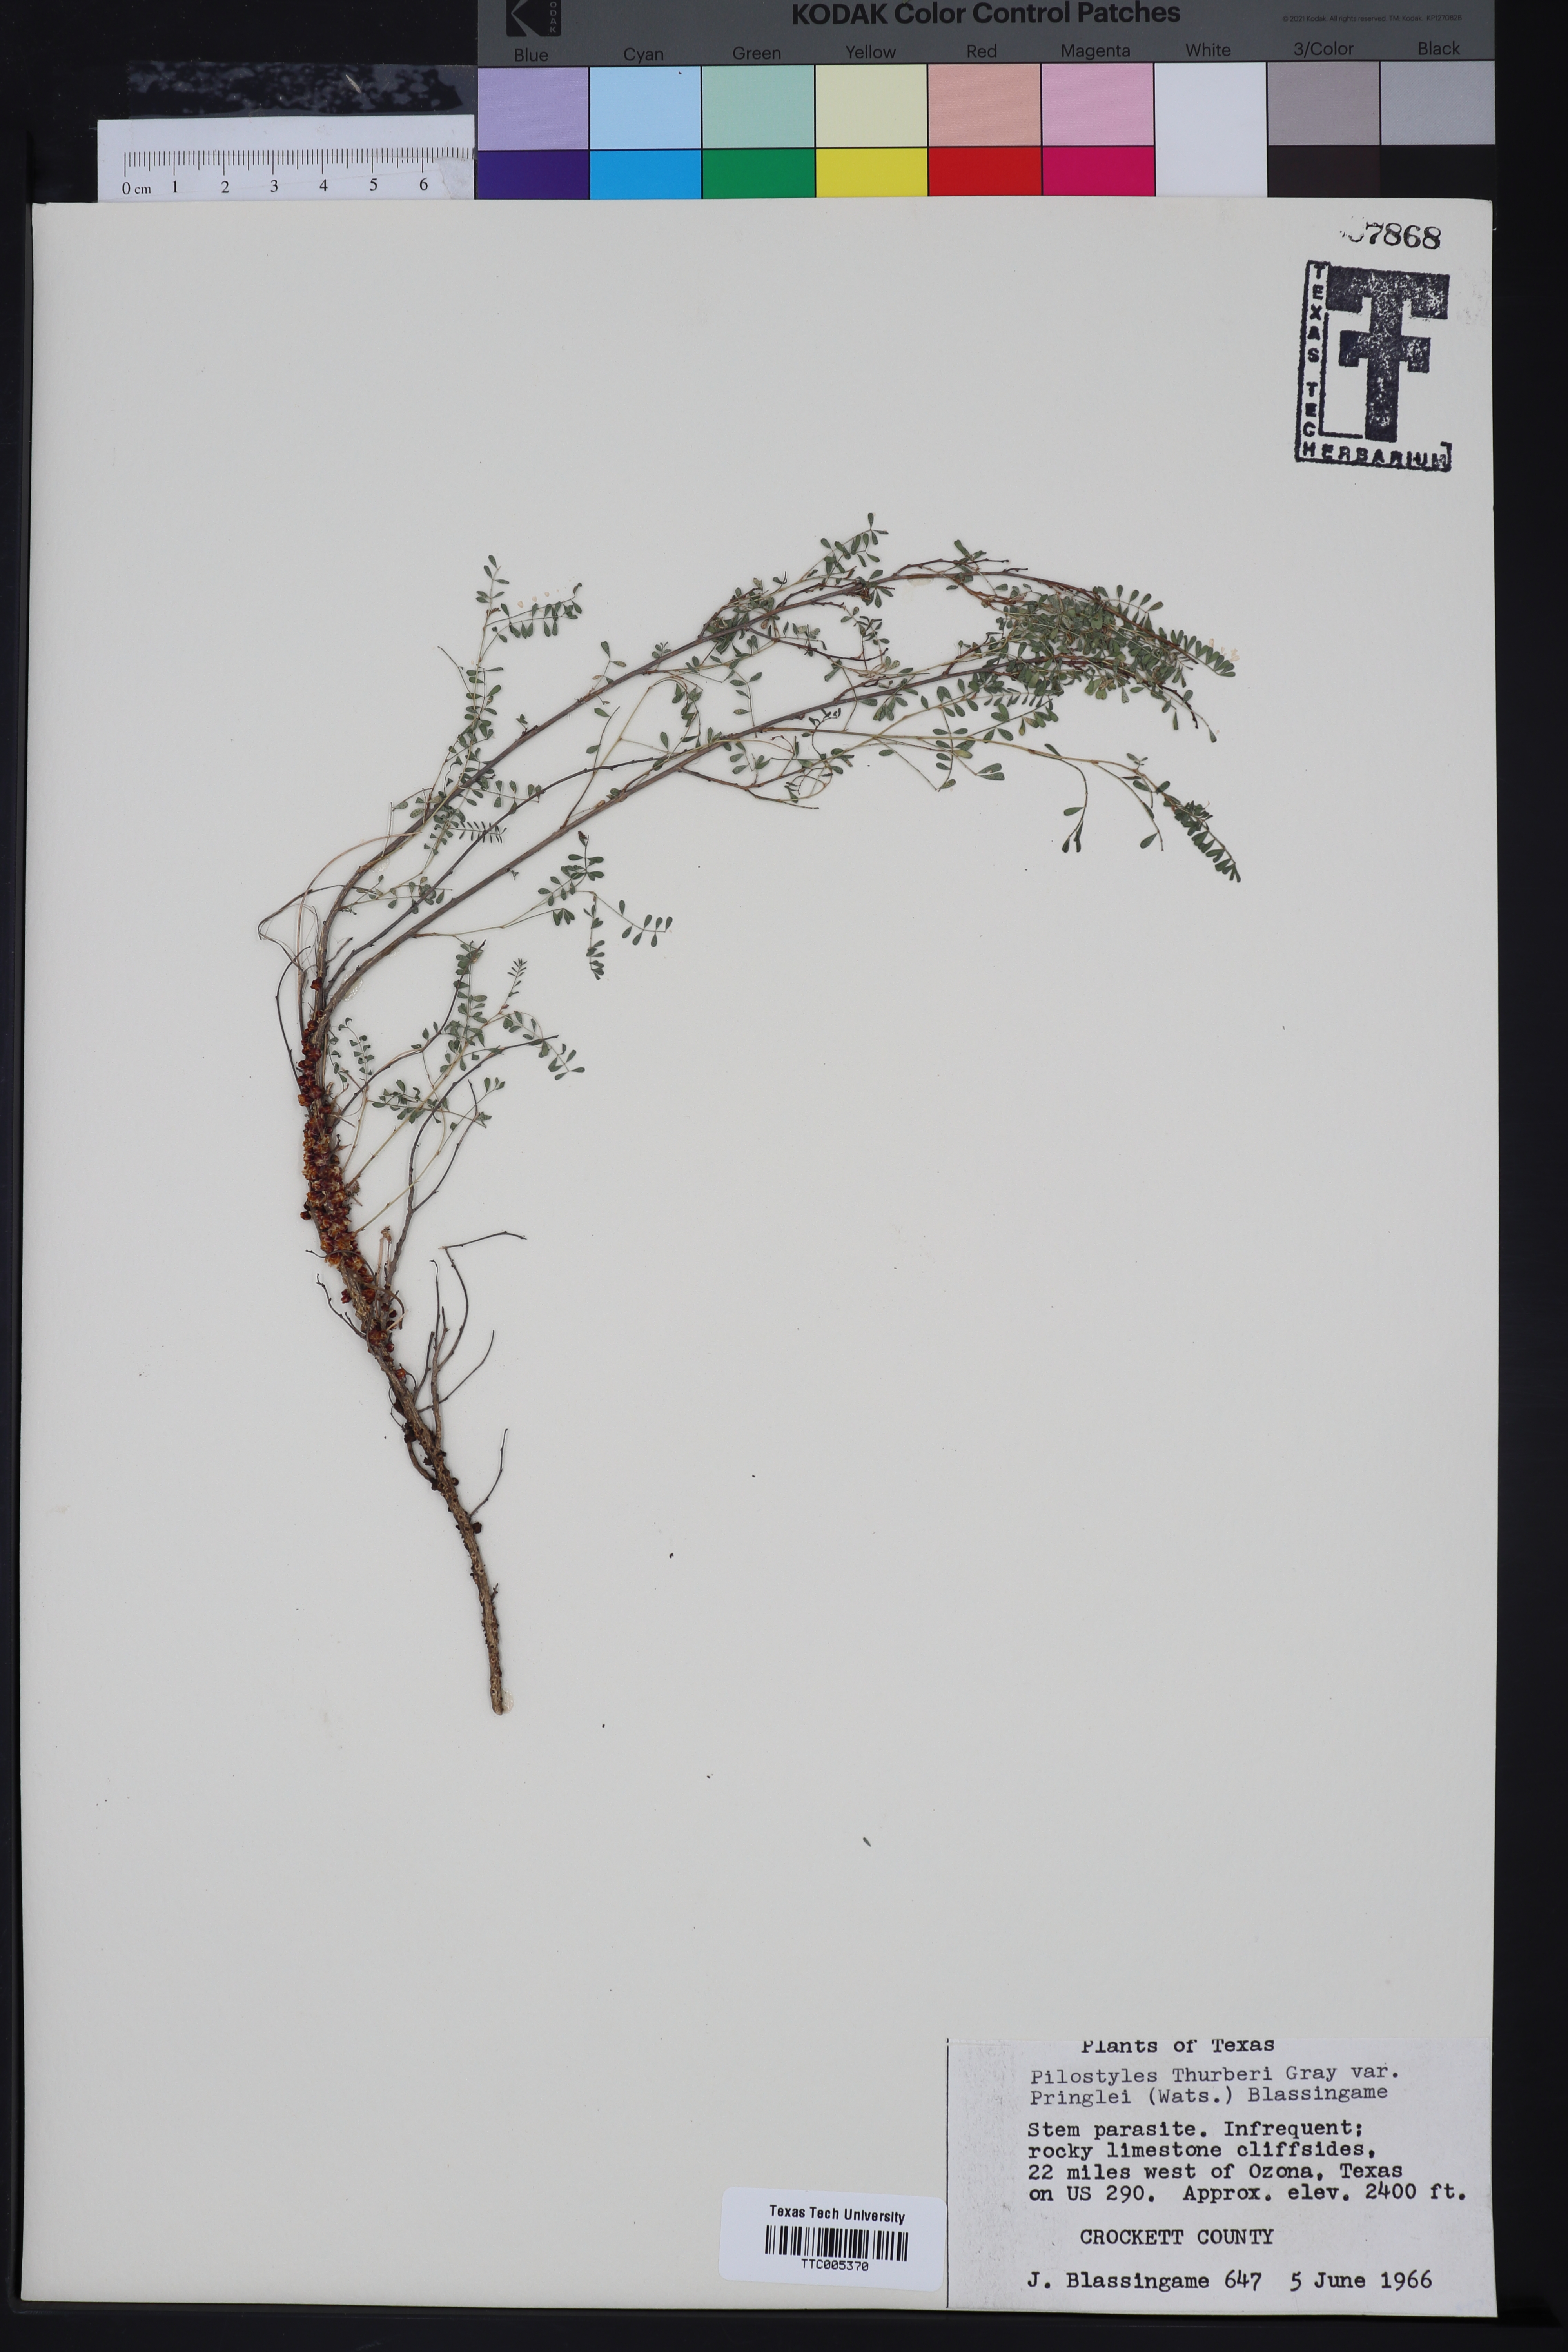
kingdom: Plantae
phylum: Tracheophyta
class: Magnoliopsida
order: Cucurbitales
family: Apodanthaceae
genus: Pilostyles
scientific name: Pilostyles thurberi
